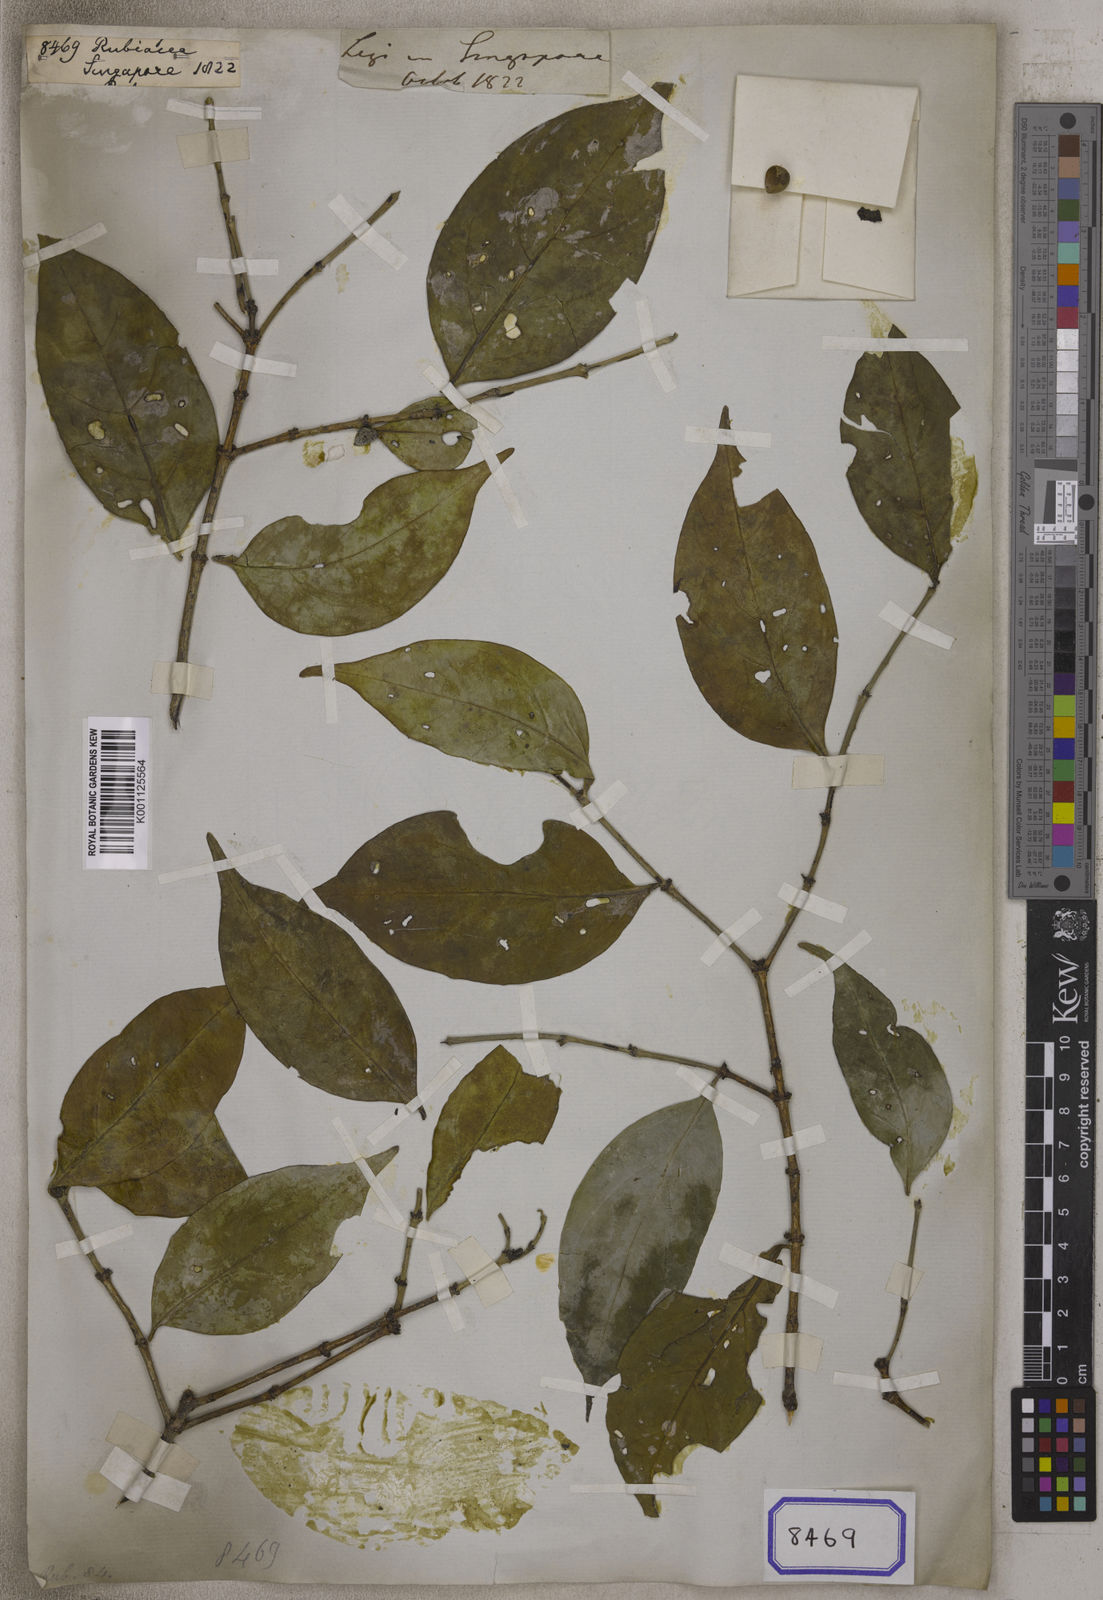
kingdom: Plantae
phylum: Tracheophyta
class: Magnoliopsida
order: Gentianales
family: Rubiaceae
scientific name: Rubiaceae
